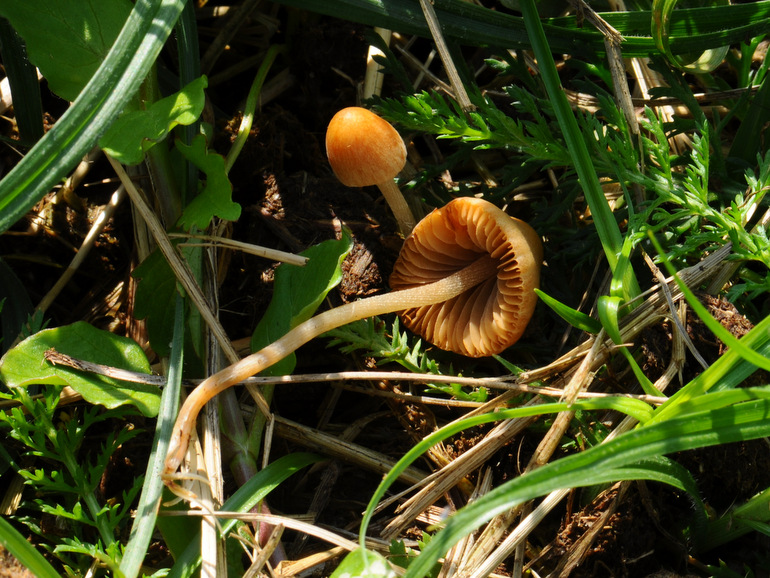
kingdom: Fungi
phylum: Basidiomycota
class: Agaricomycetes
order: Agaricales
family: Bolbitiaceae
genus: Conocybe
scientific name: Conocybe rickenii
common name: møg-keglehat
